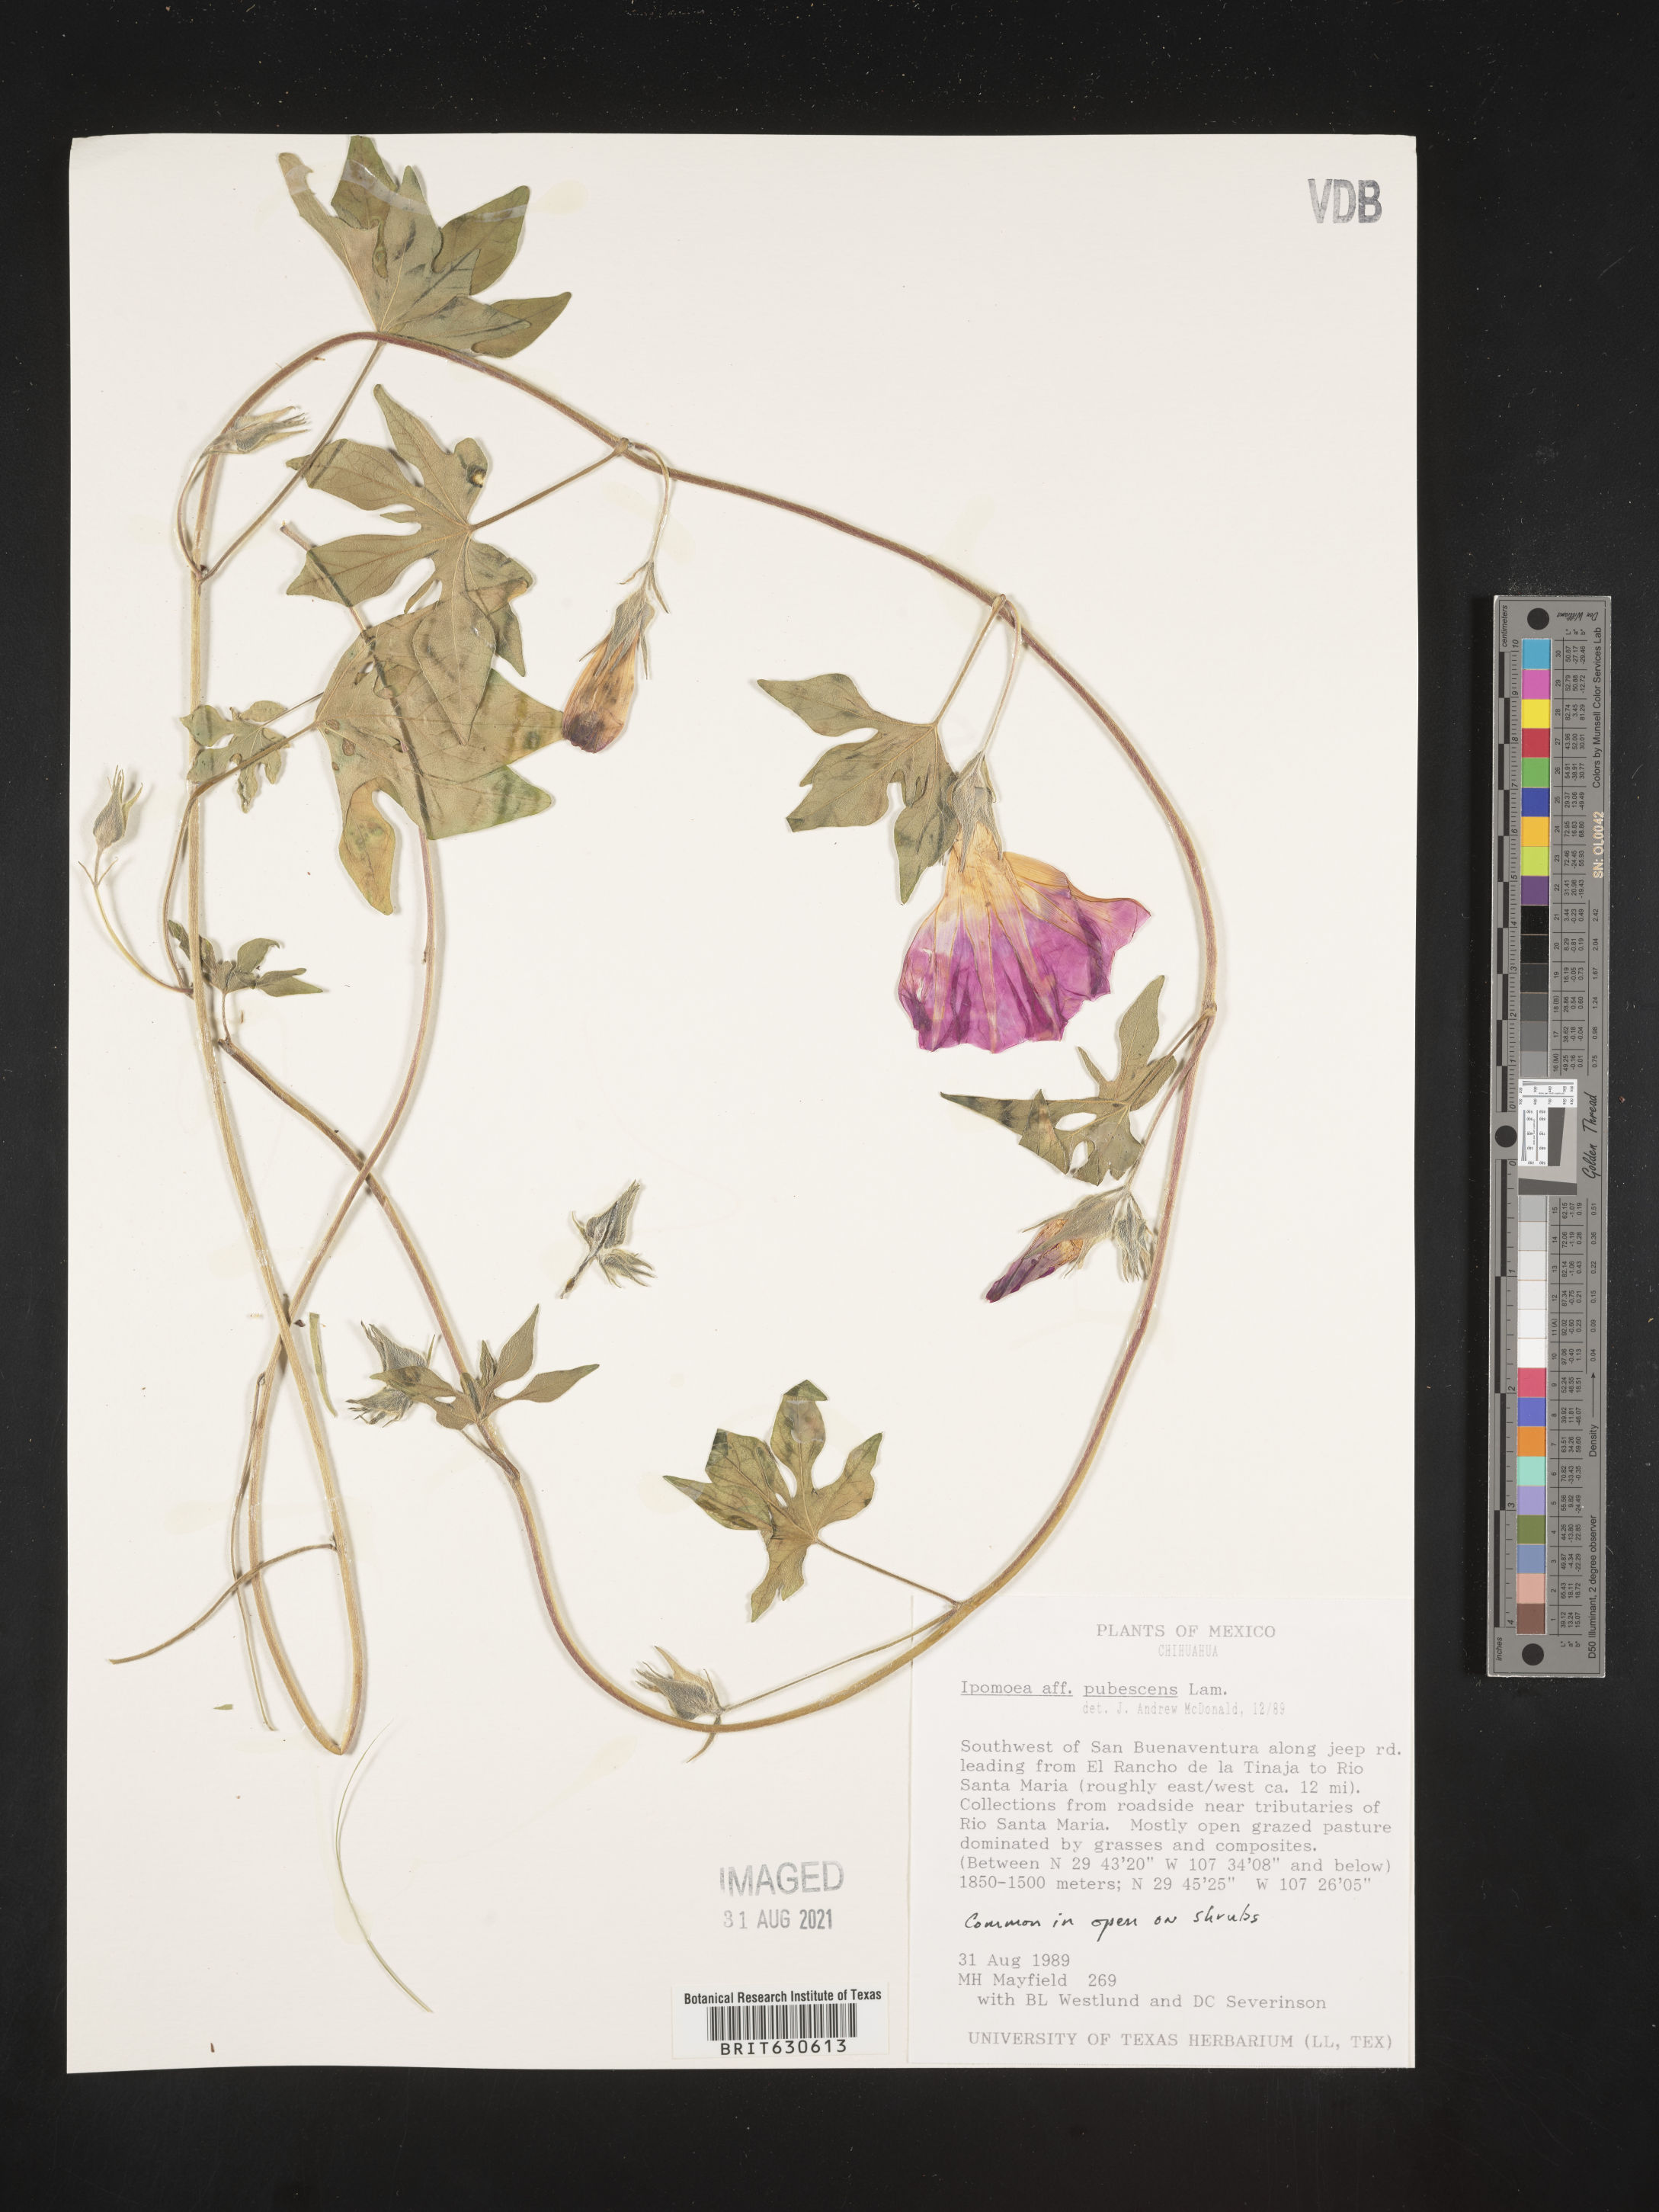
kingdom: Plantae
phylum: Tracheophyta
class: Magnoliopsida
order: Solanales
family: Convolvulaceae
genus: Ipomoea
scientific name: Ipomoea
